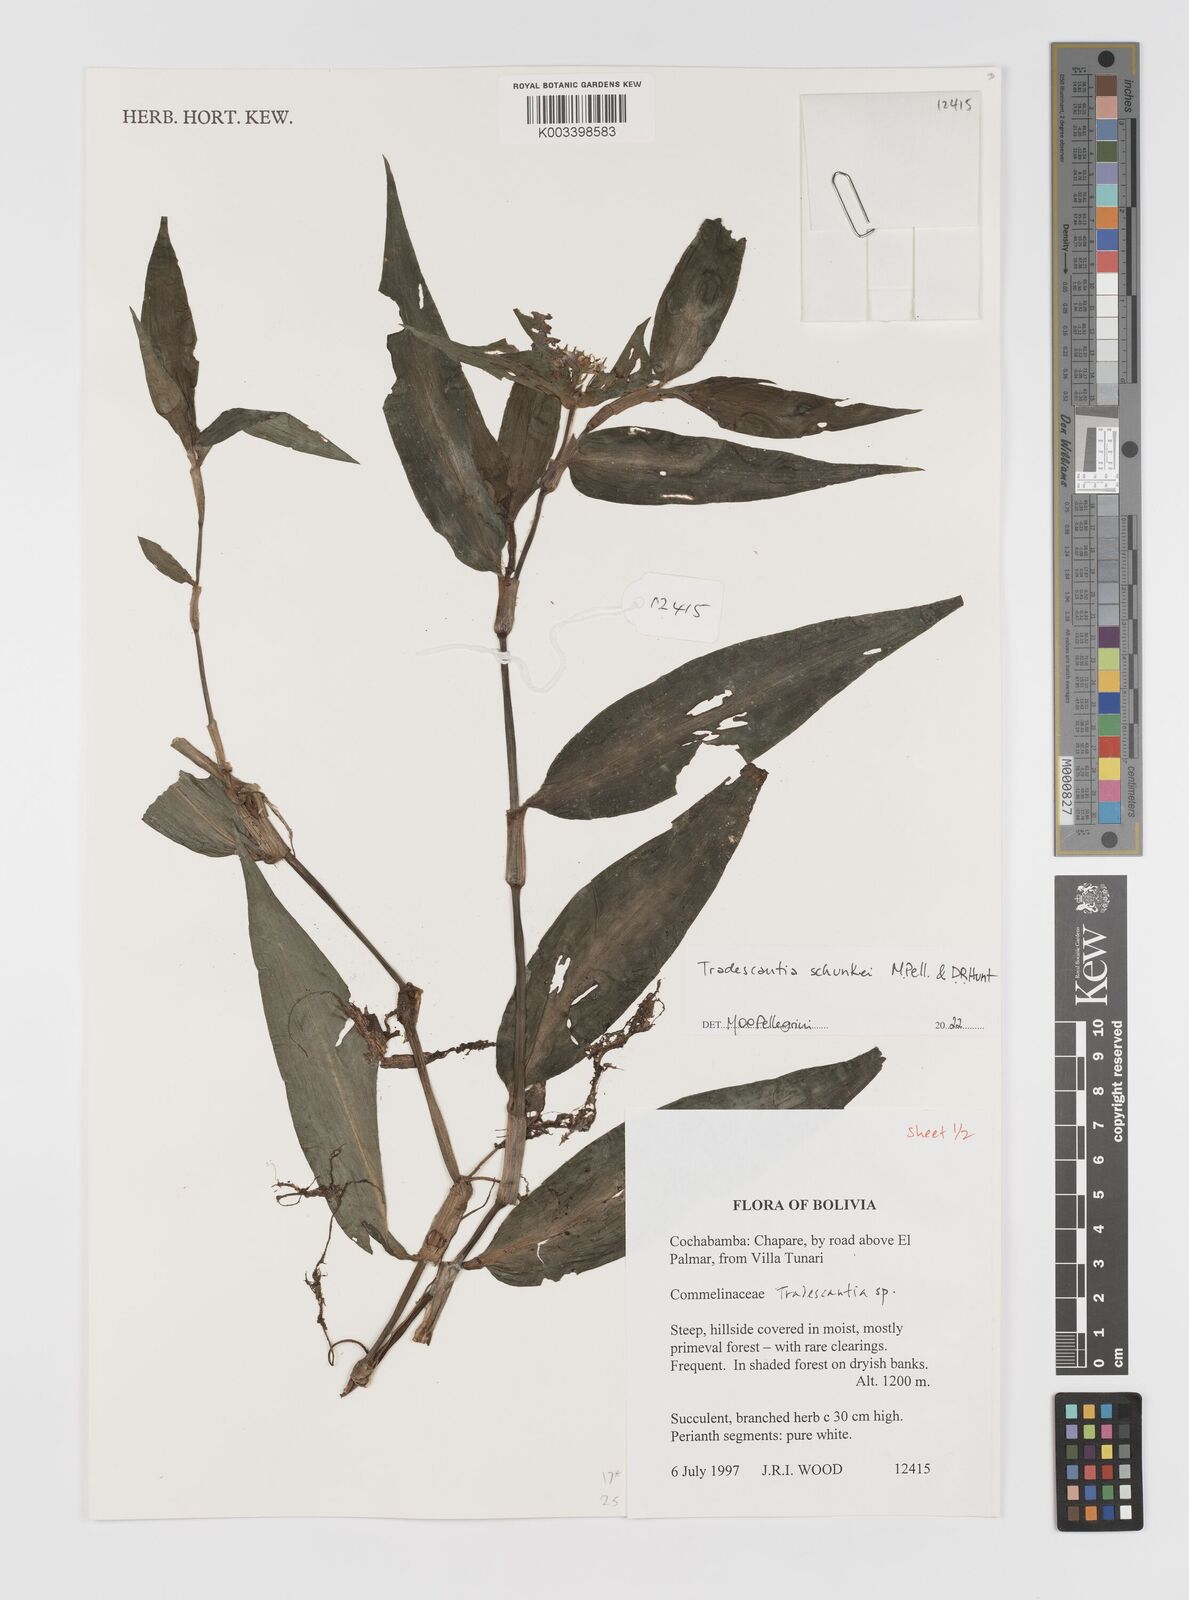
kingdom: Plantae
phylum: Tracheophyta
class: Liliopsida
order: Commelinales
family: Commelinaceae
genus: Tradescantia
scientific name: Tradescantia
